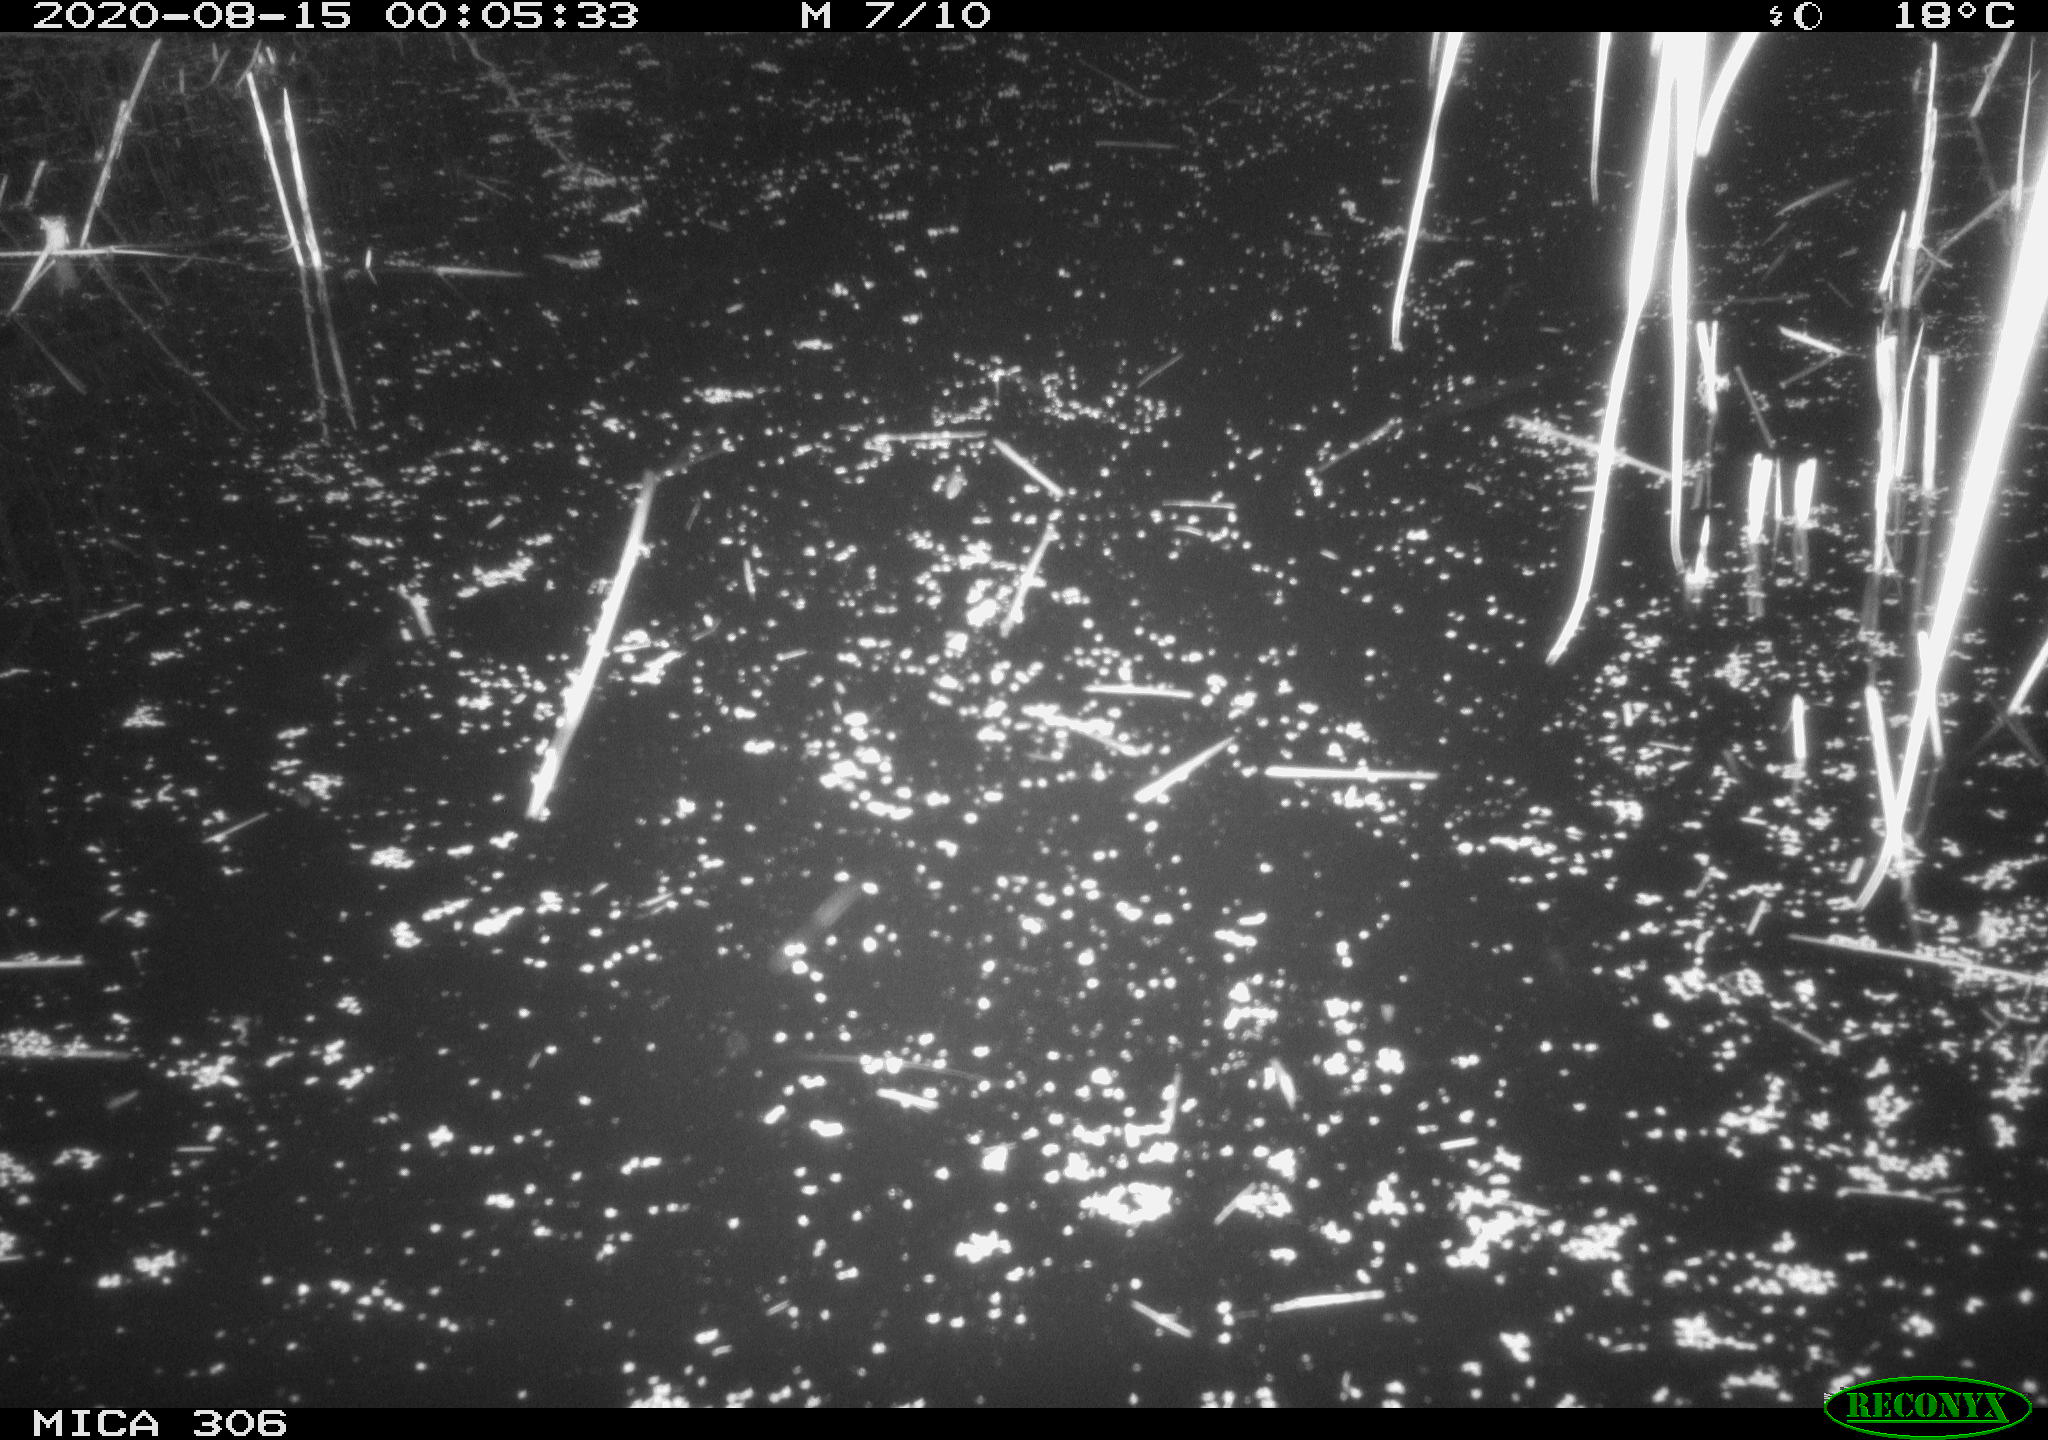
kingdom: Animalia
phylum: Chordata
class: Mammalia
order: Rodentia
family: Muridae
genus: Rattus
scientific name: Rattus norvegicus
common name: Brown rat
